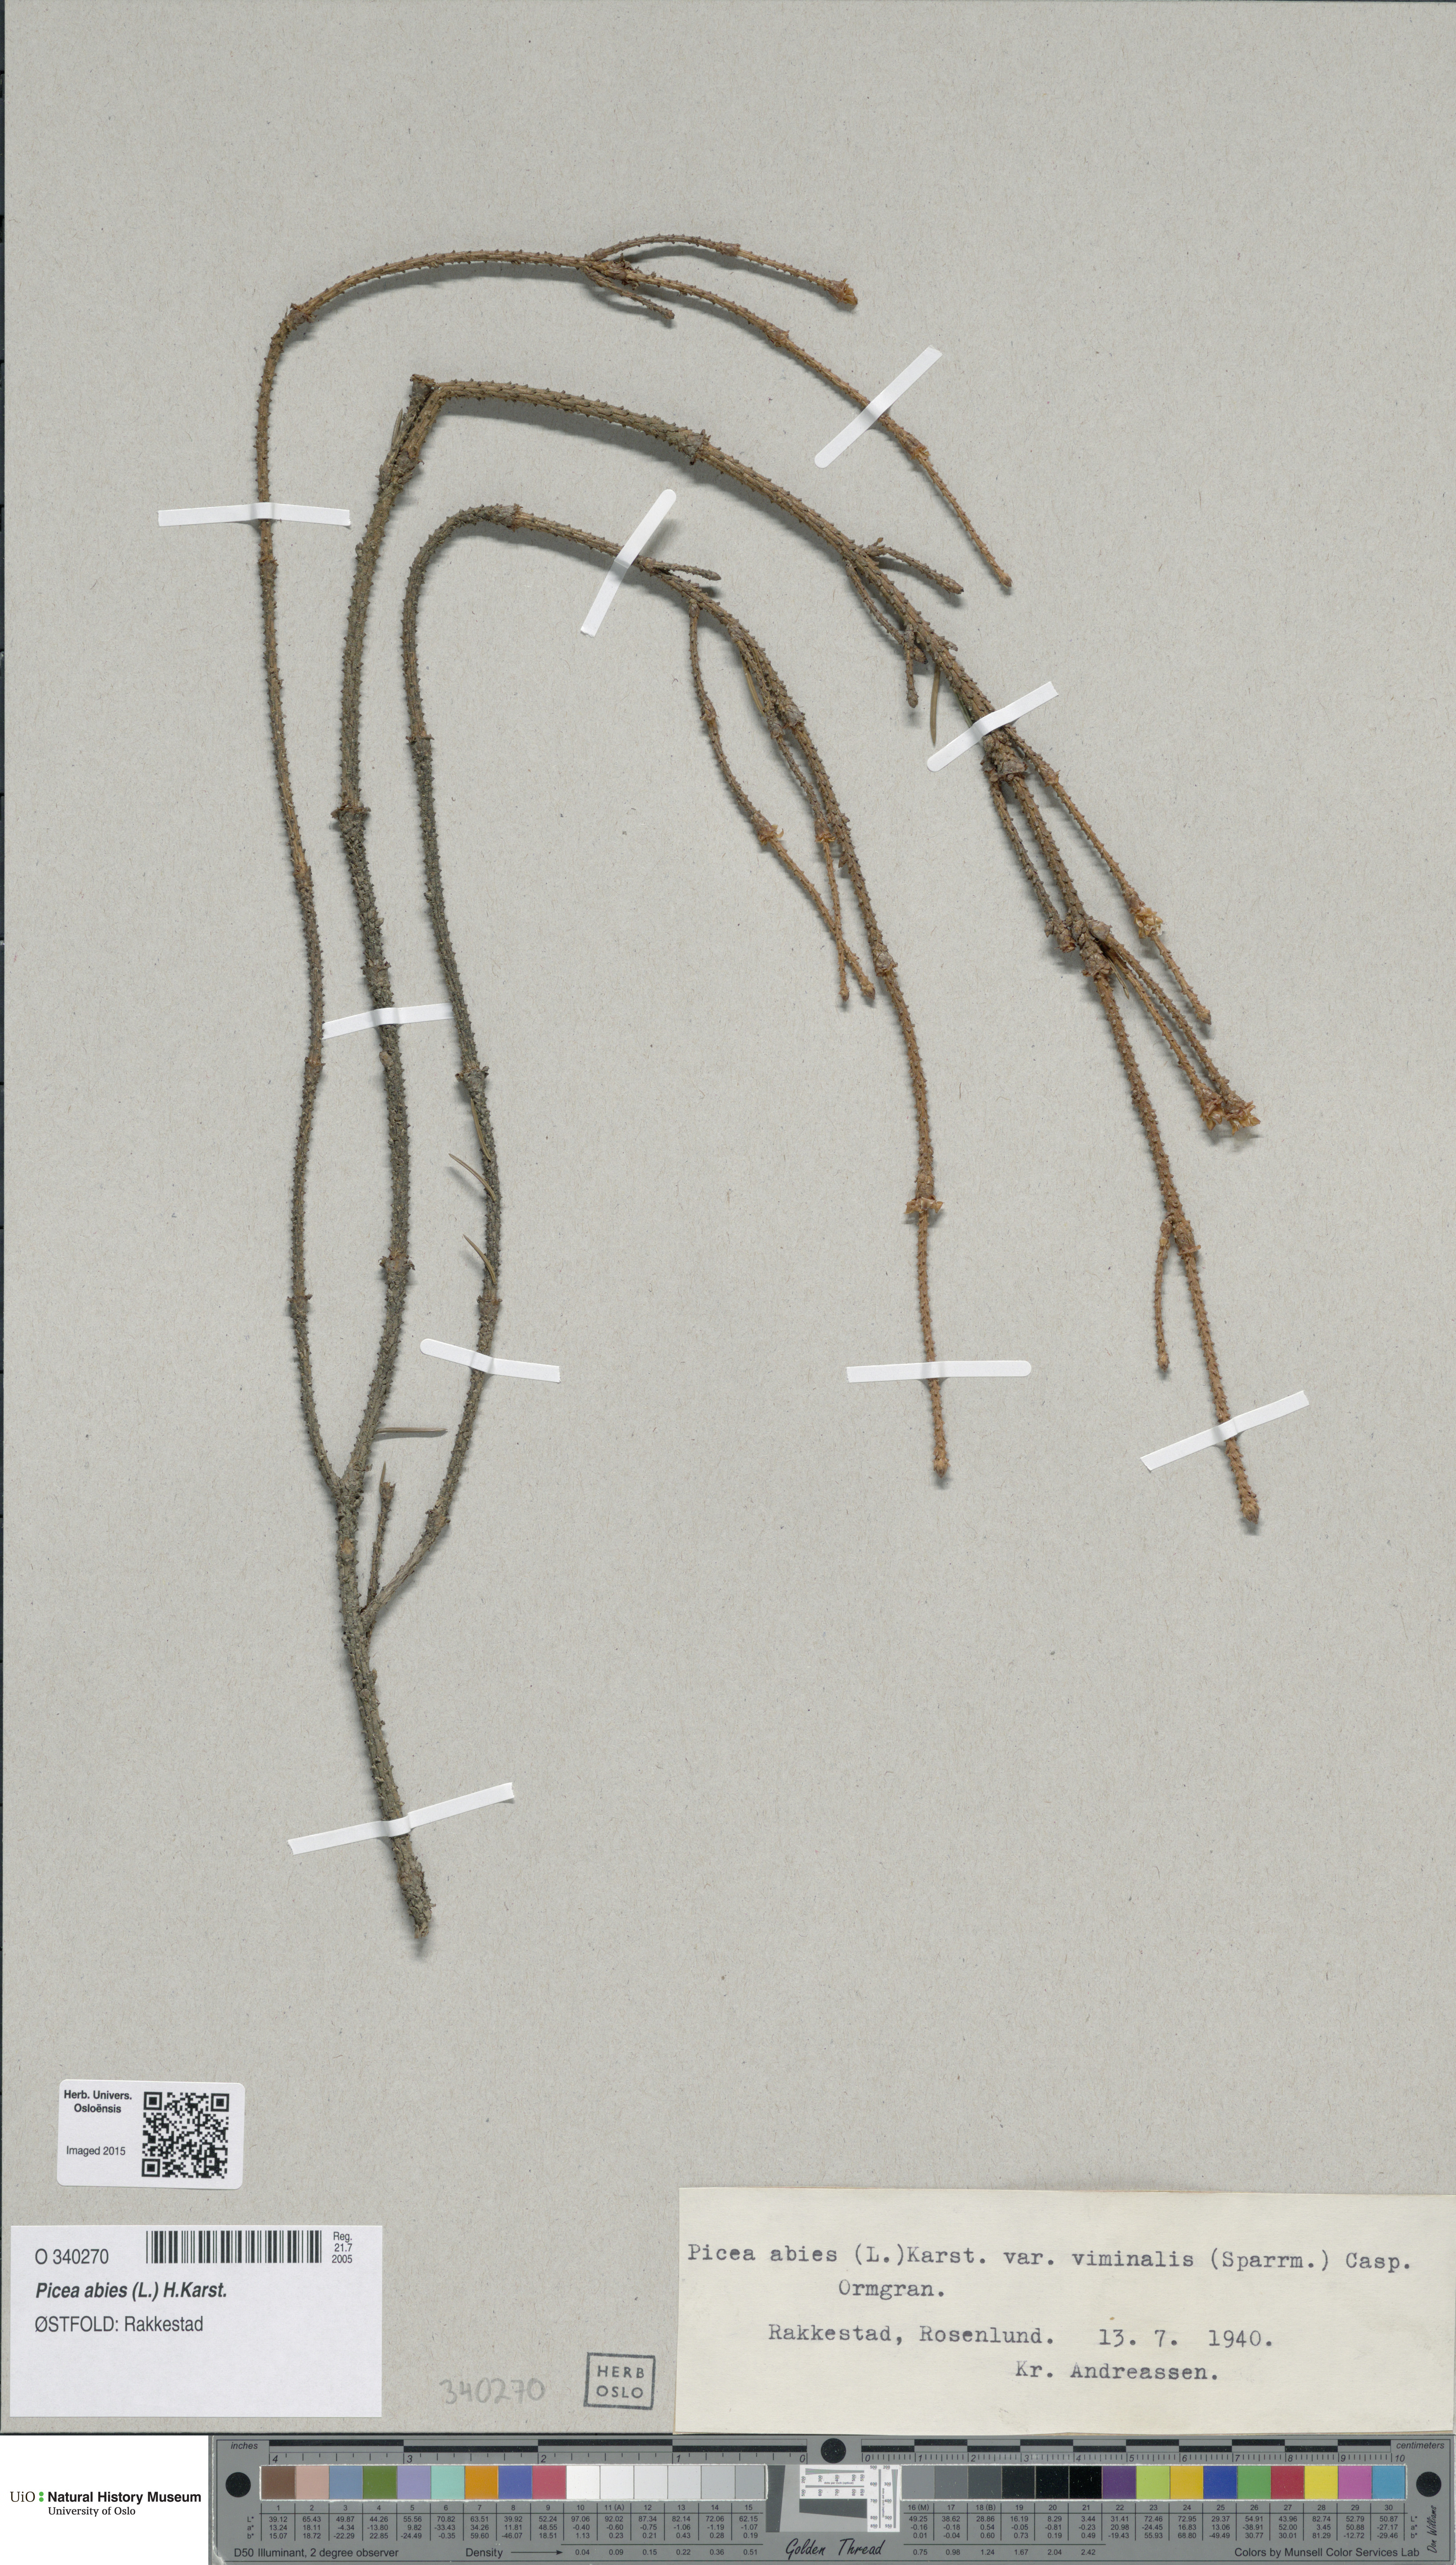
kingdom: Plantae
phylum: Tracheophyta
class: Pinopsida
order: Pinales
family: Pinaceae
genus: Picea
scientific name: Picea abies
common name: Norway spruce
